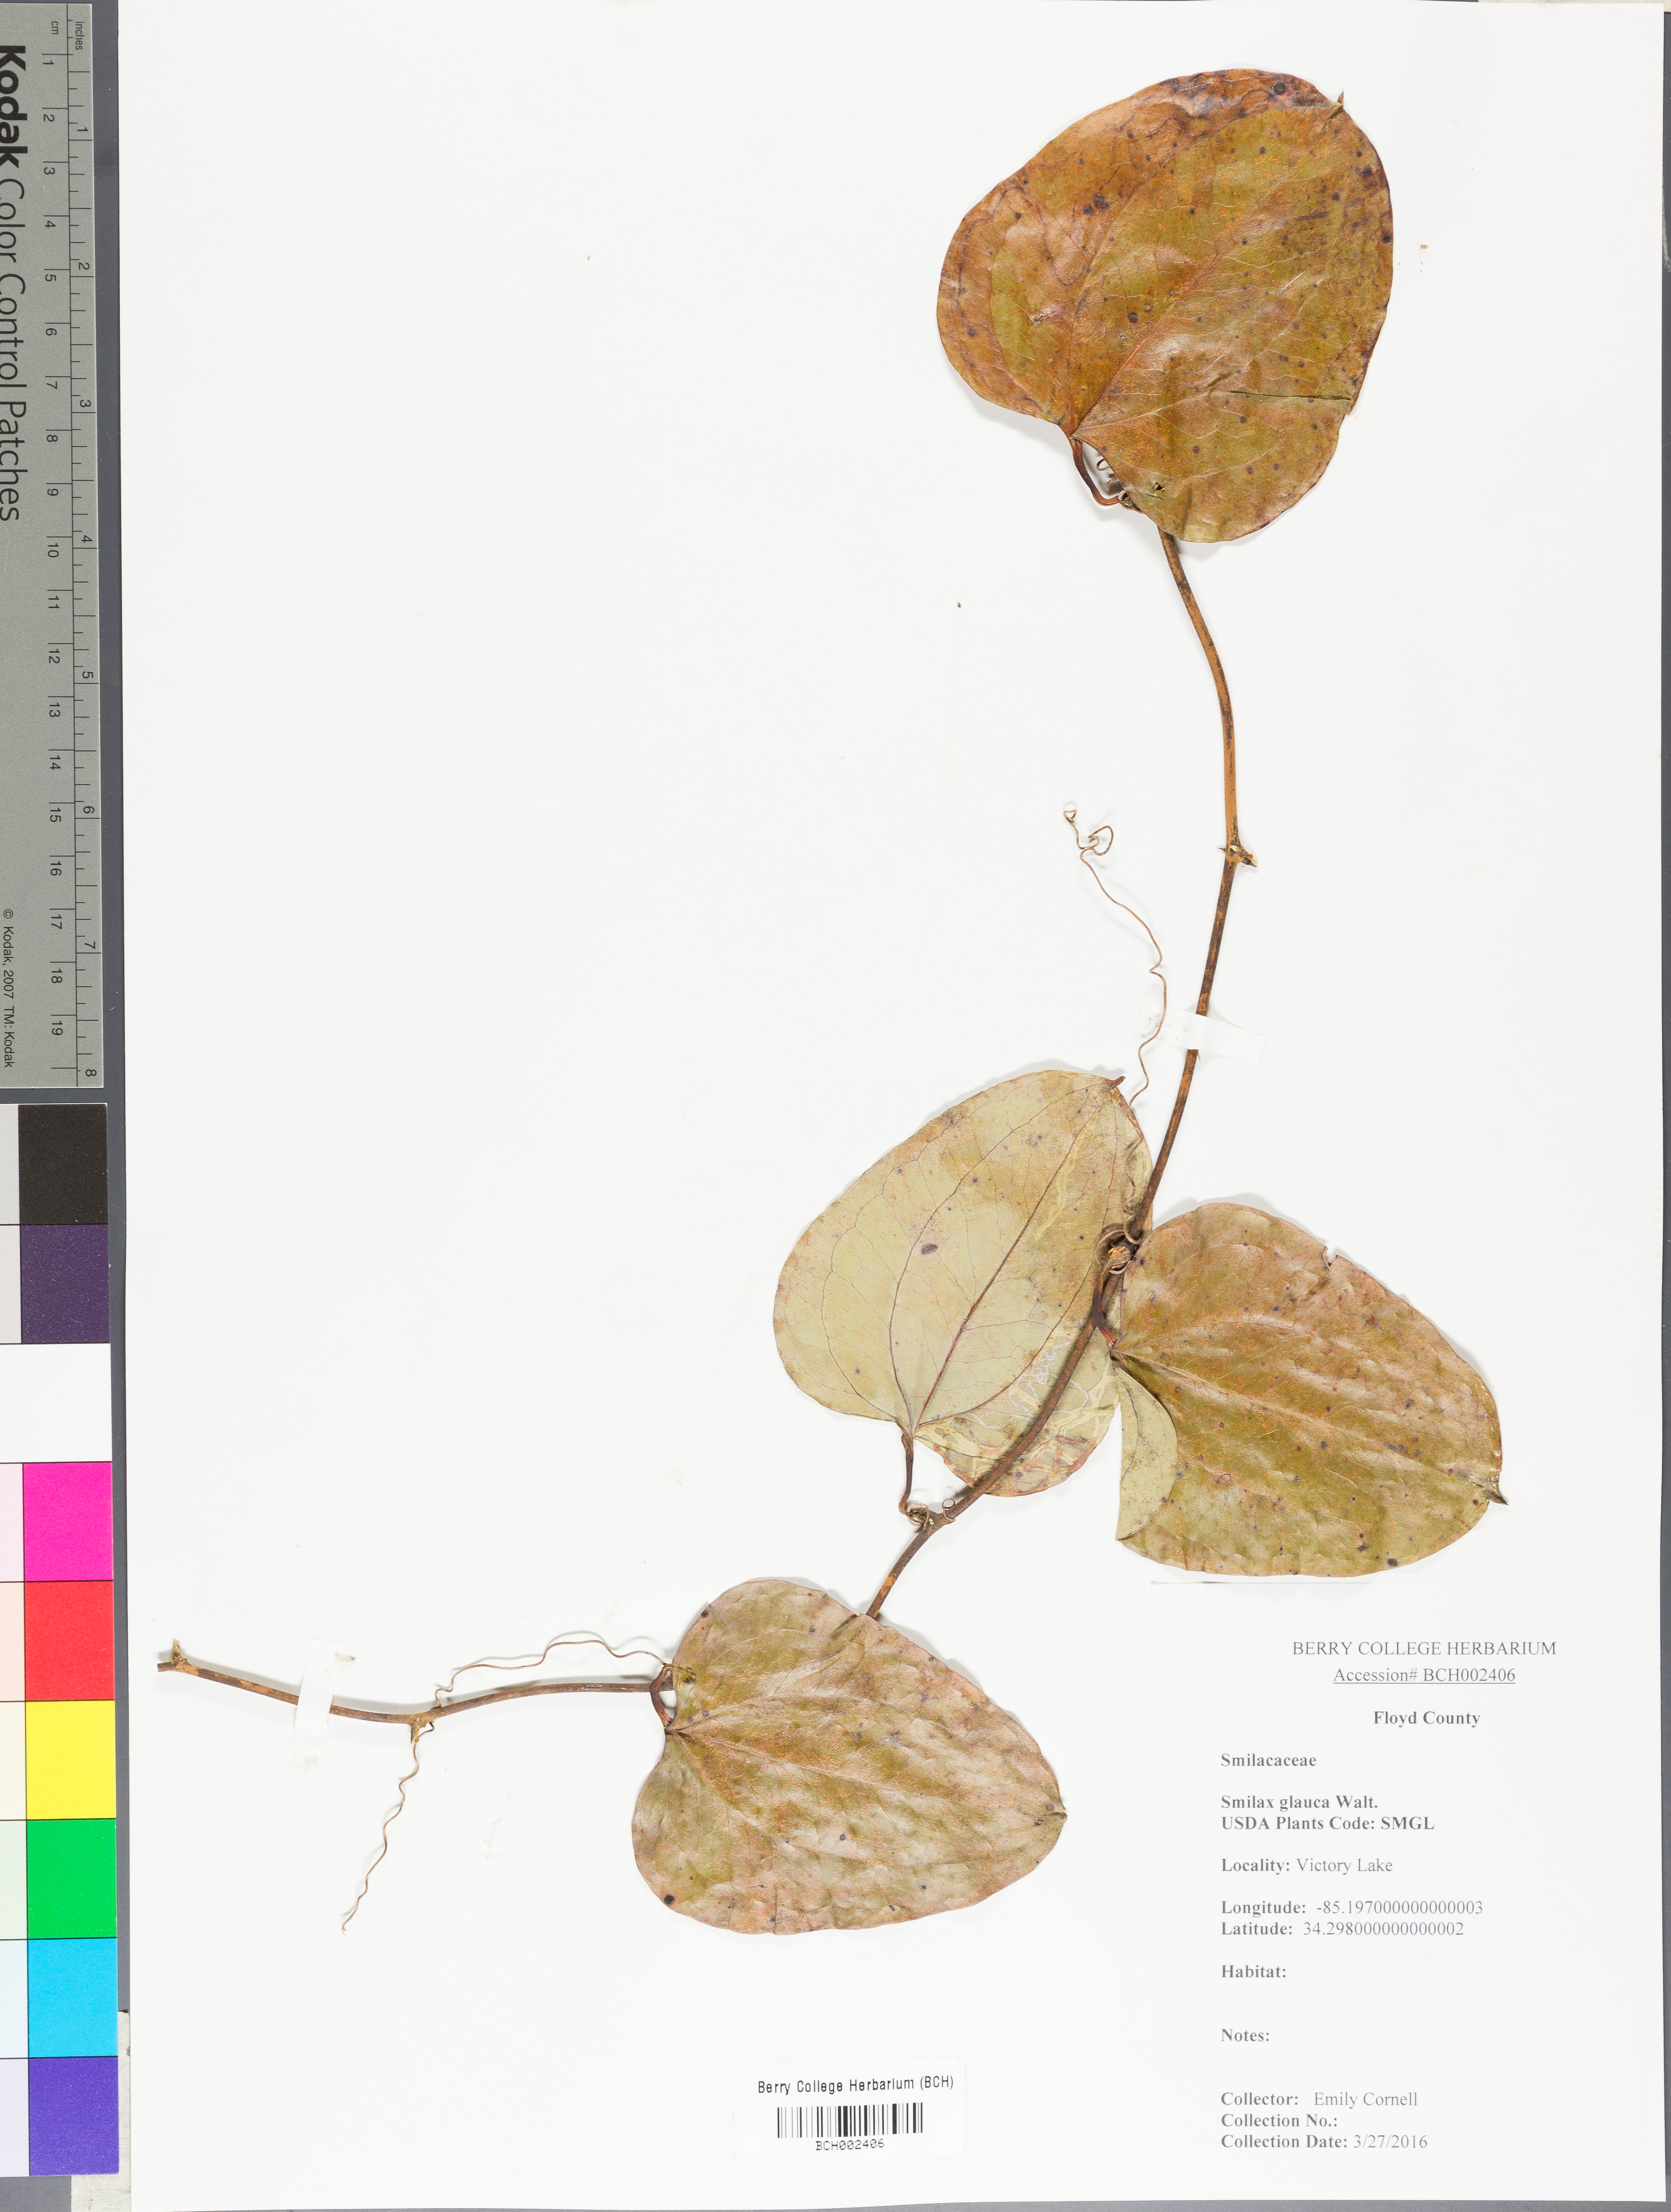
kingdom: Plantae
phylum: Tracheophyta
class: Liliopsida
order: Liliales
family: Smilacaceae
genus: Smilax
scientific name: Smilax glauca
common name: Cat greenbrier
